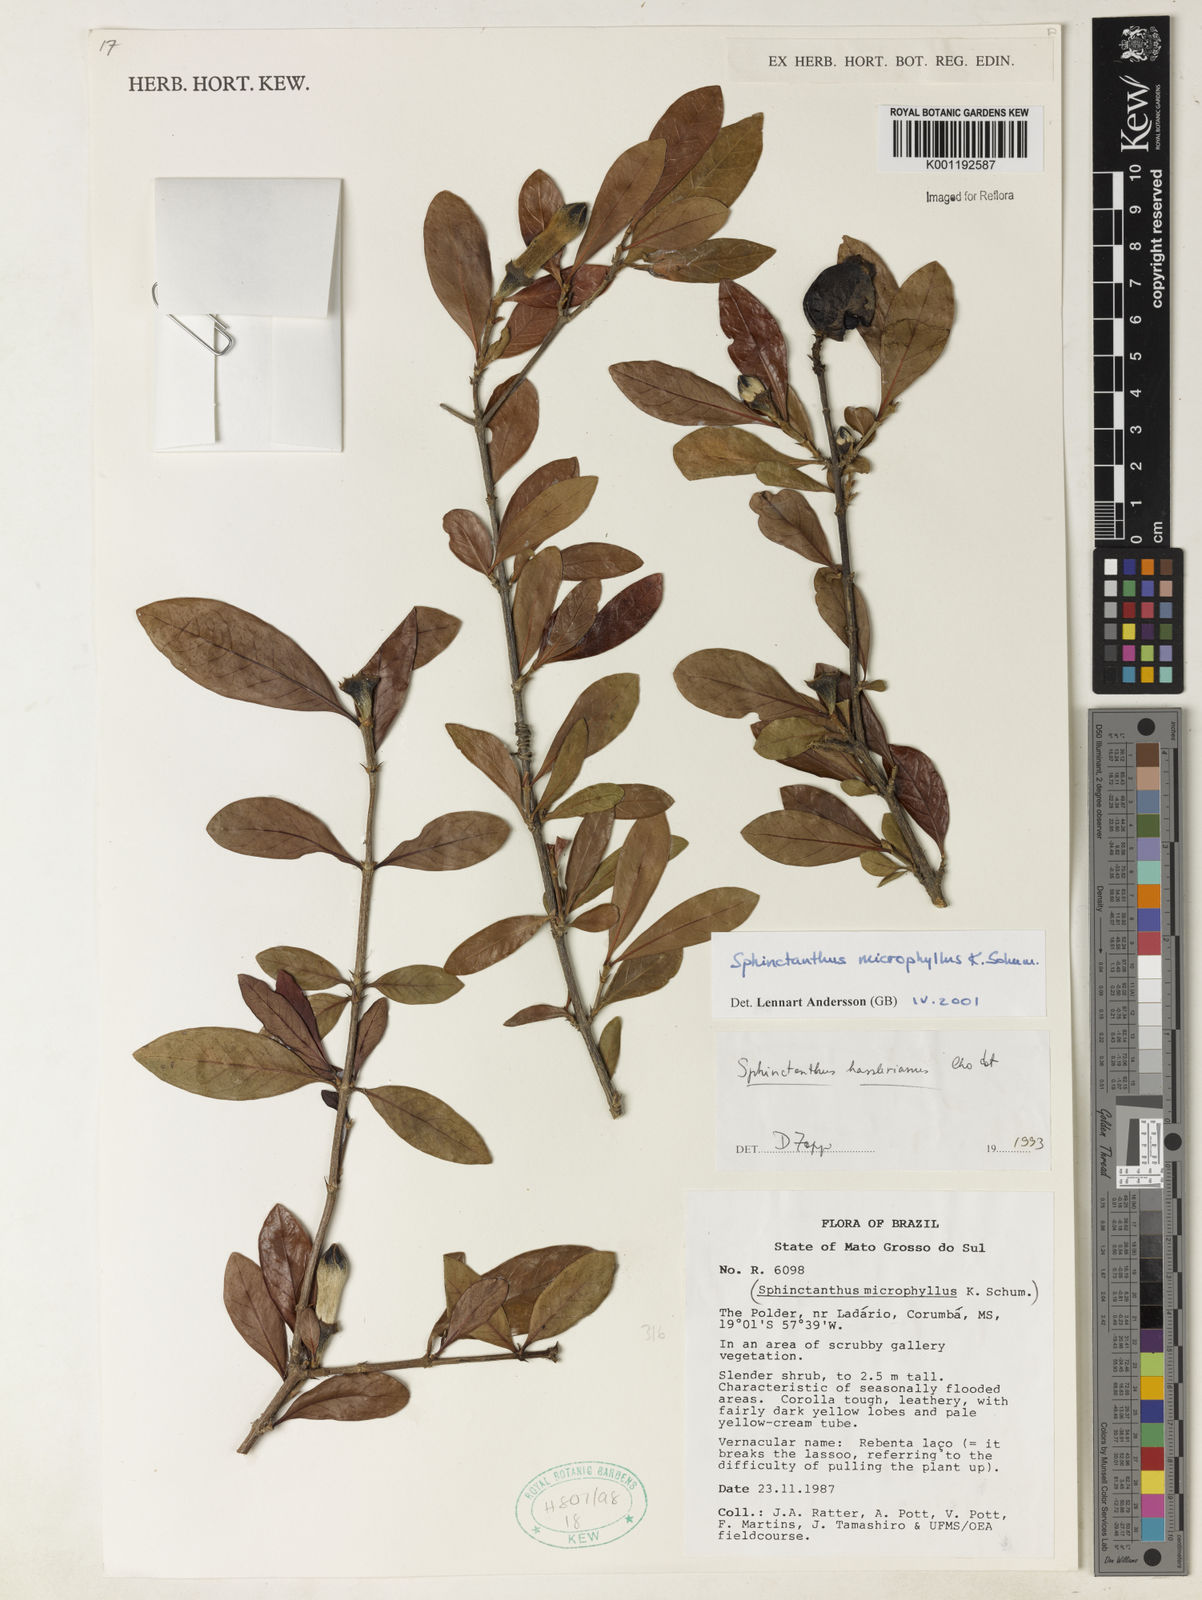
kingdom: Plantae
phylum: Tracheophyta
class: Magnoliopsida
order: Gentianales
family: Rubiaceae
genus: Sphinctanthus
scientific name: Sphinctanthus microphyllus
